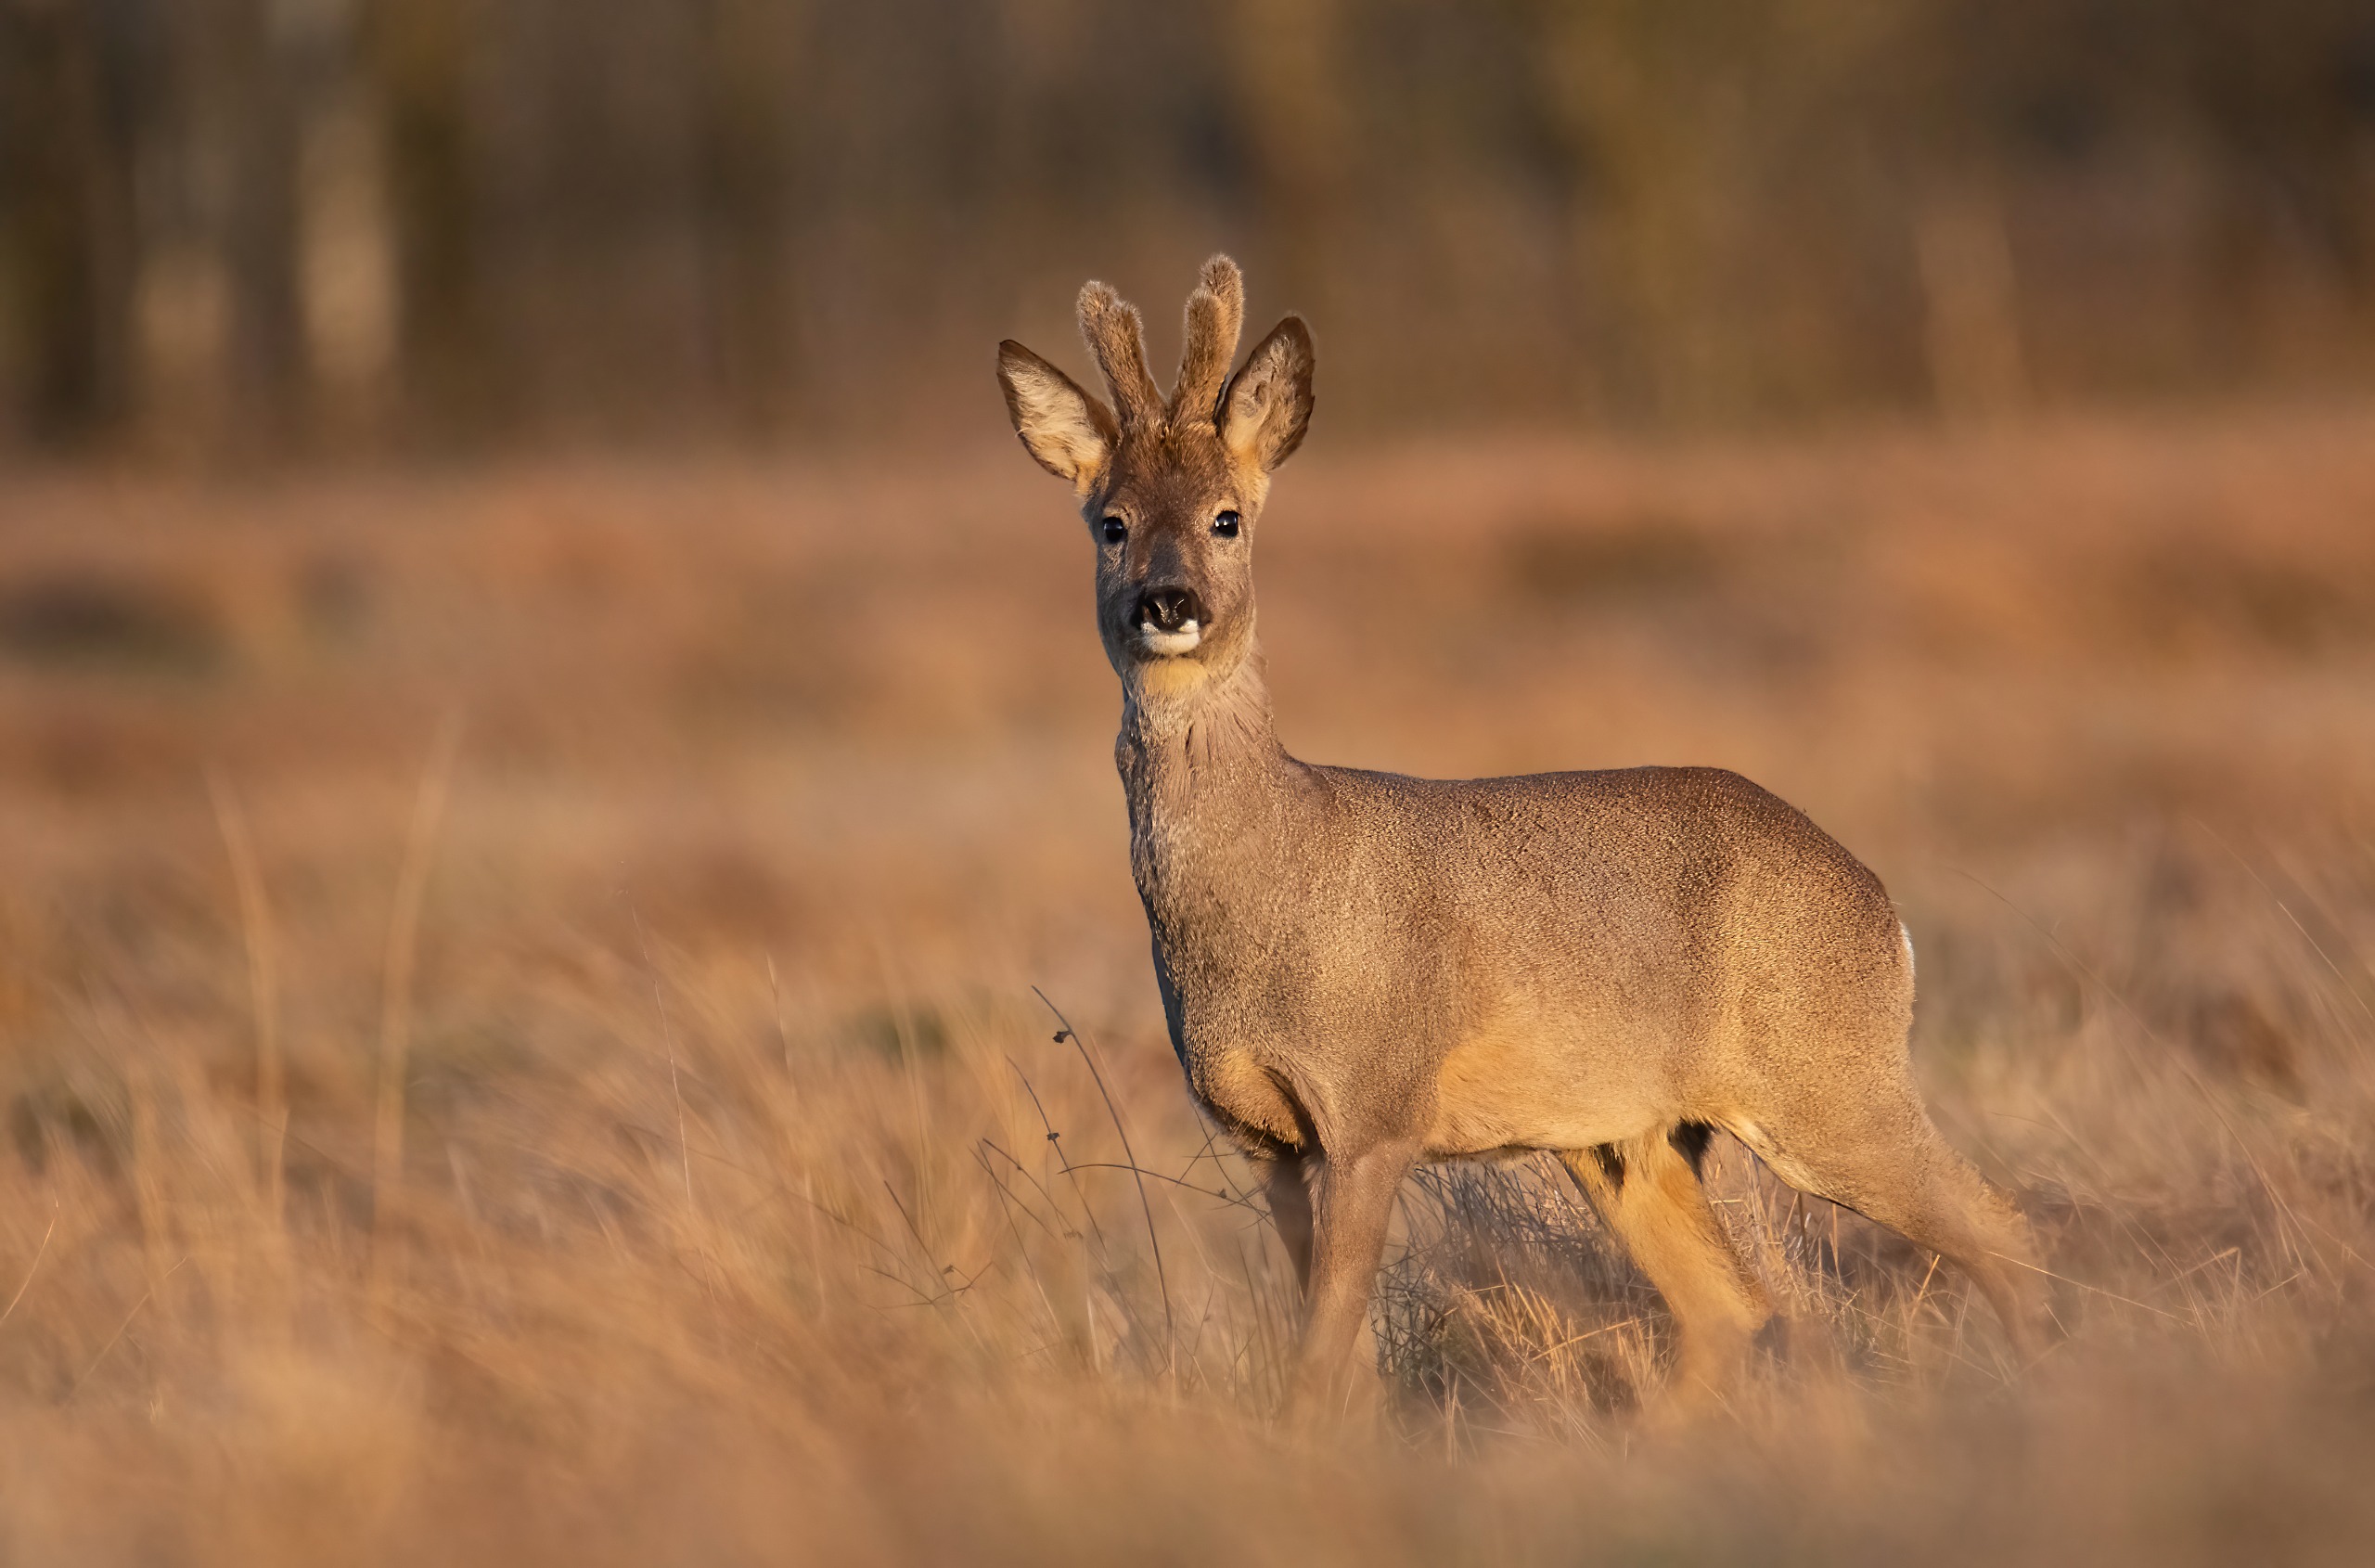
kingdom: Animalia
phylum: Chordata
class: Mammalia
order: Artiodactyla
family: Cervidae
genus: Capreolus
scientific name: Capreolus capreolus
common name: Rådyr
